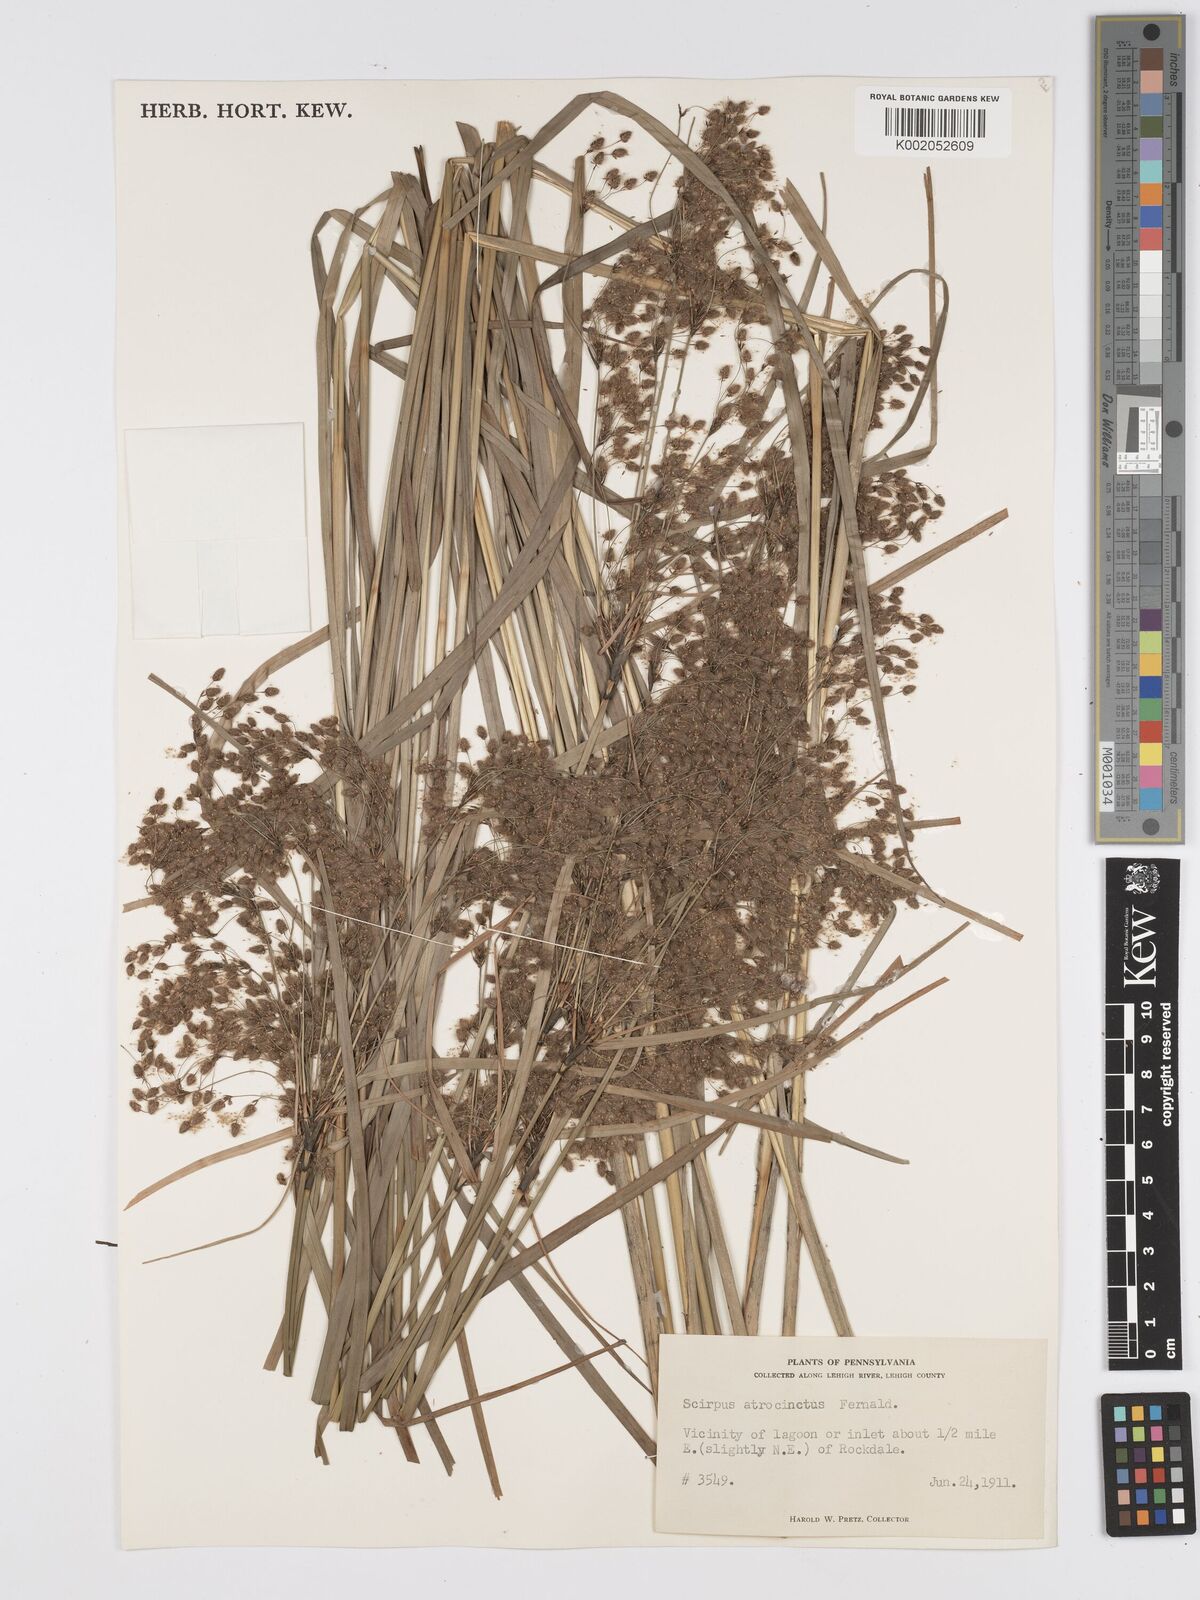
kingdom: Plantae
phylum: Tracheophyta
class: Liliopsida
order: Poales
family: Cyperaceae
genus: Scirpus
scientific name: Scirpus atrocinctus
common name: Black-girdled bulrush
